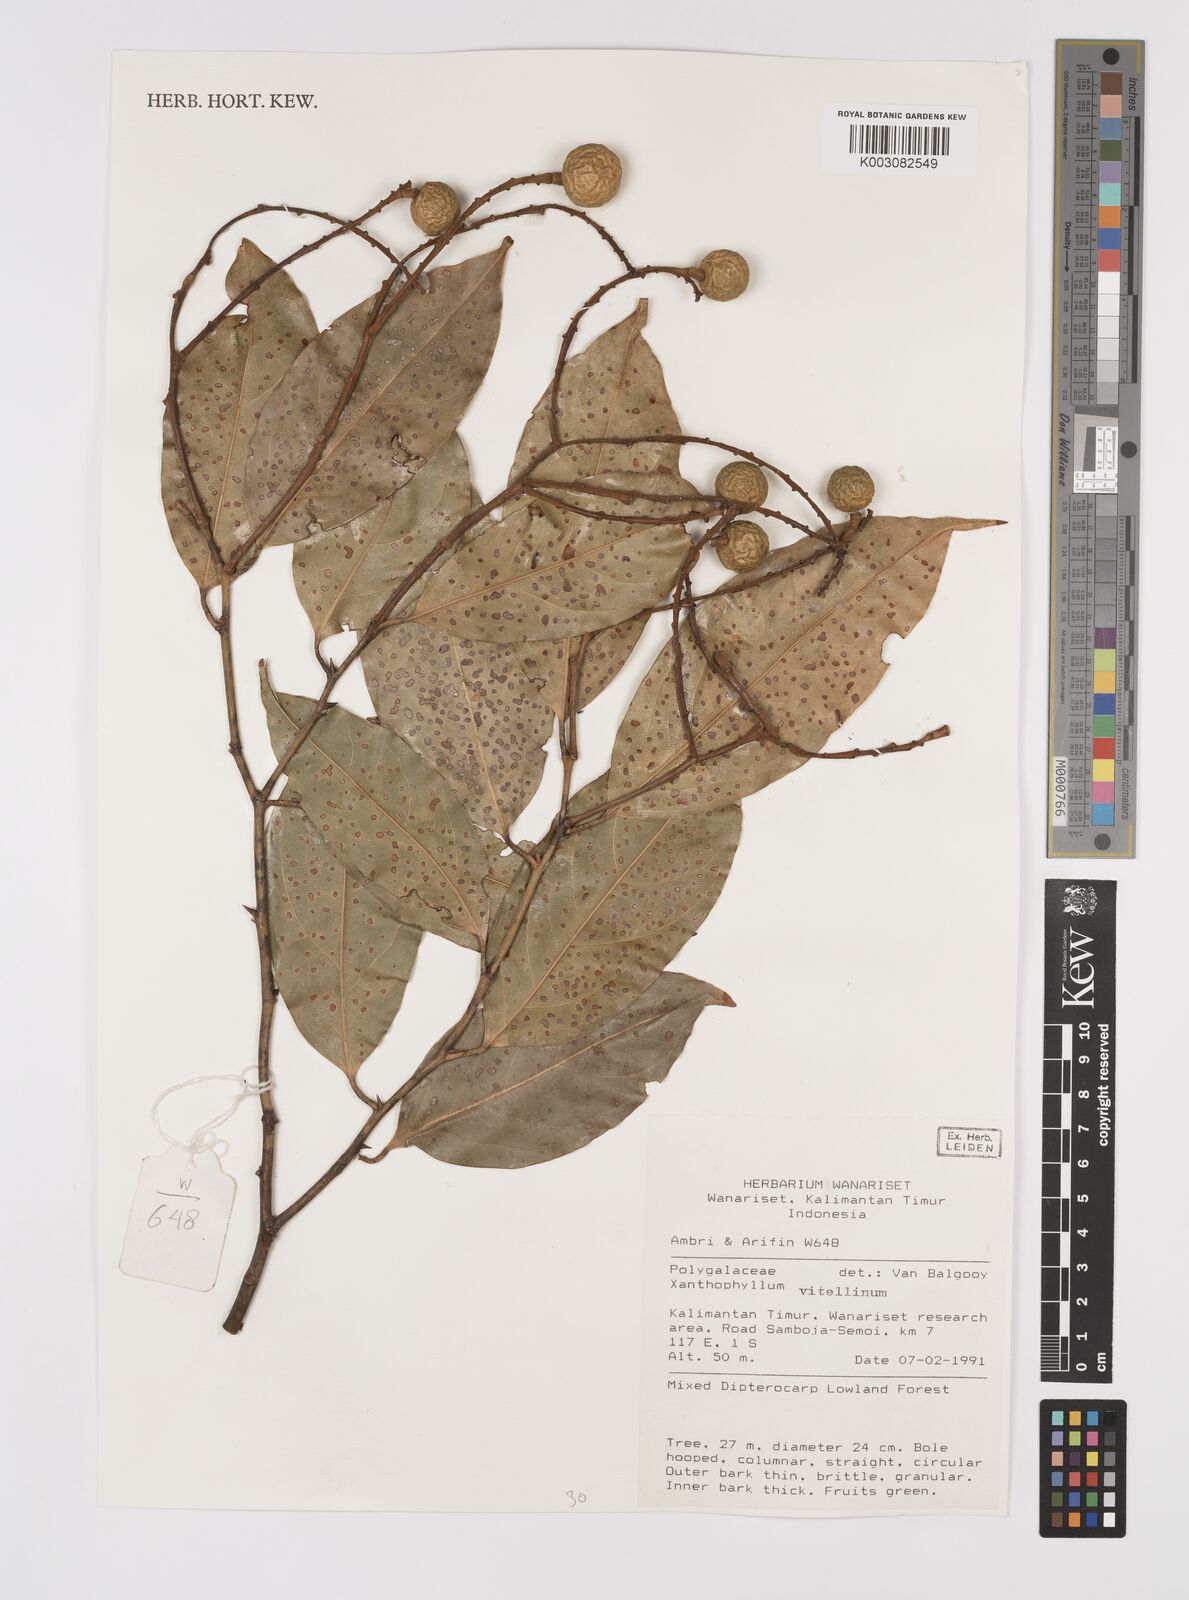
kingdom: Plantae
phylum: Tracheophyta
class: Magnoliopsida
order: Fabales
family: Polygalaceae
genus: Xanthophyllum
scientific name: Xanthophyllum vitellinum
